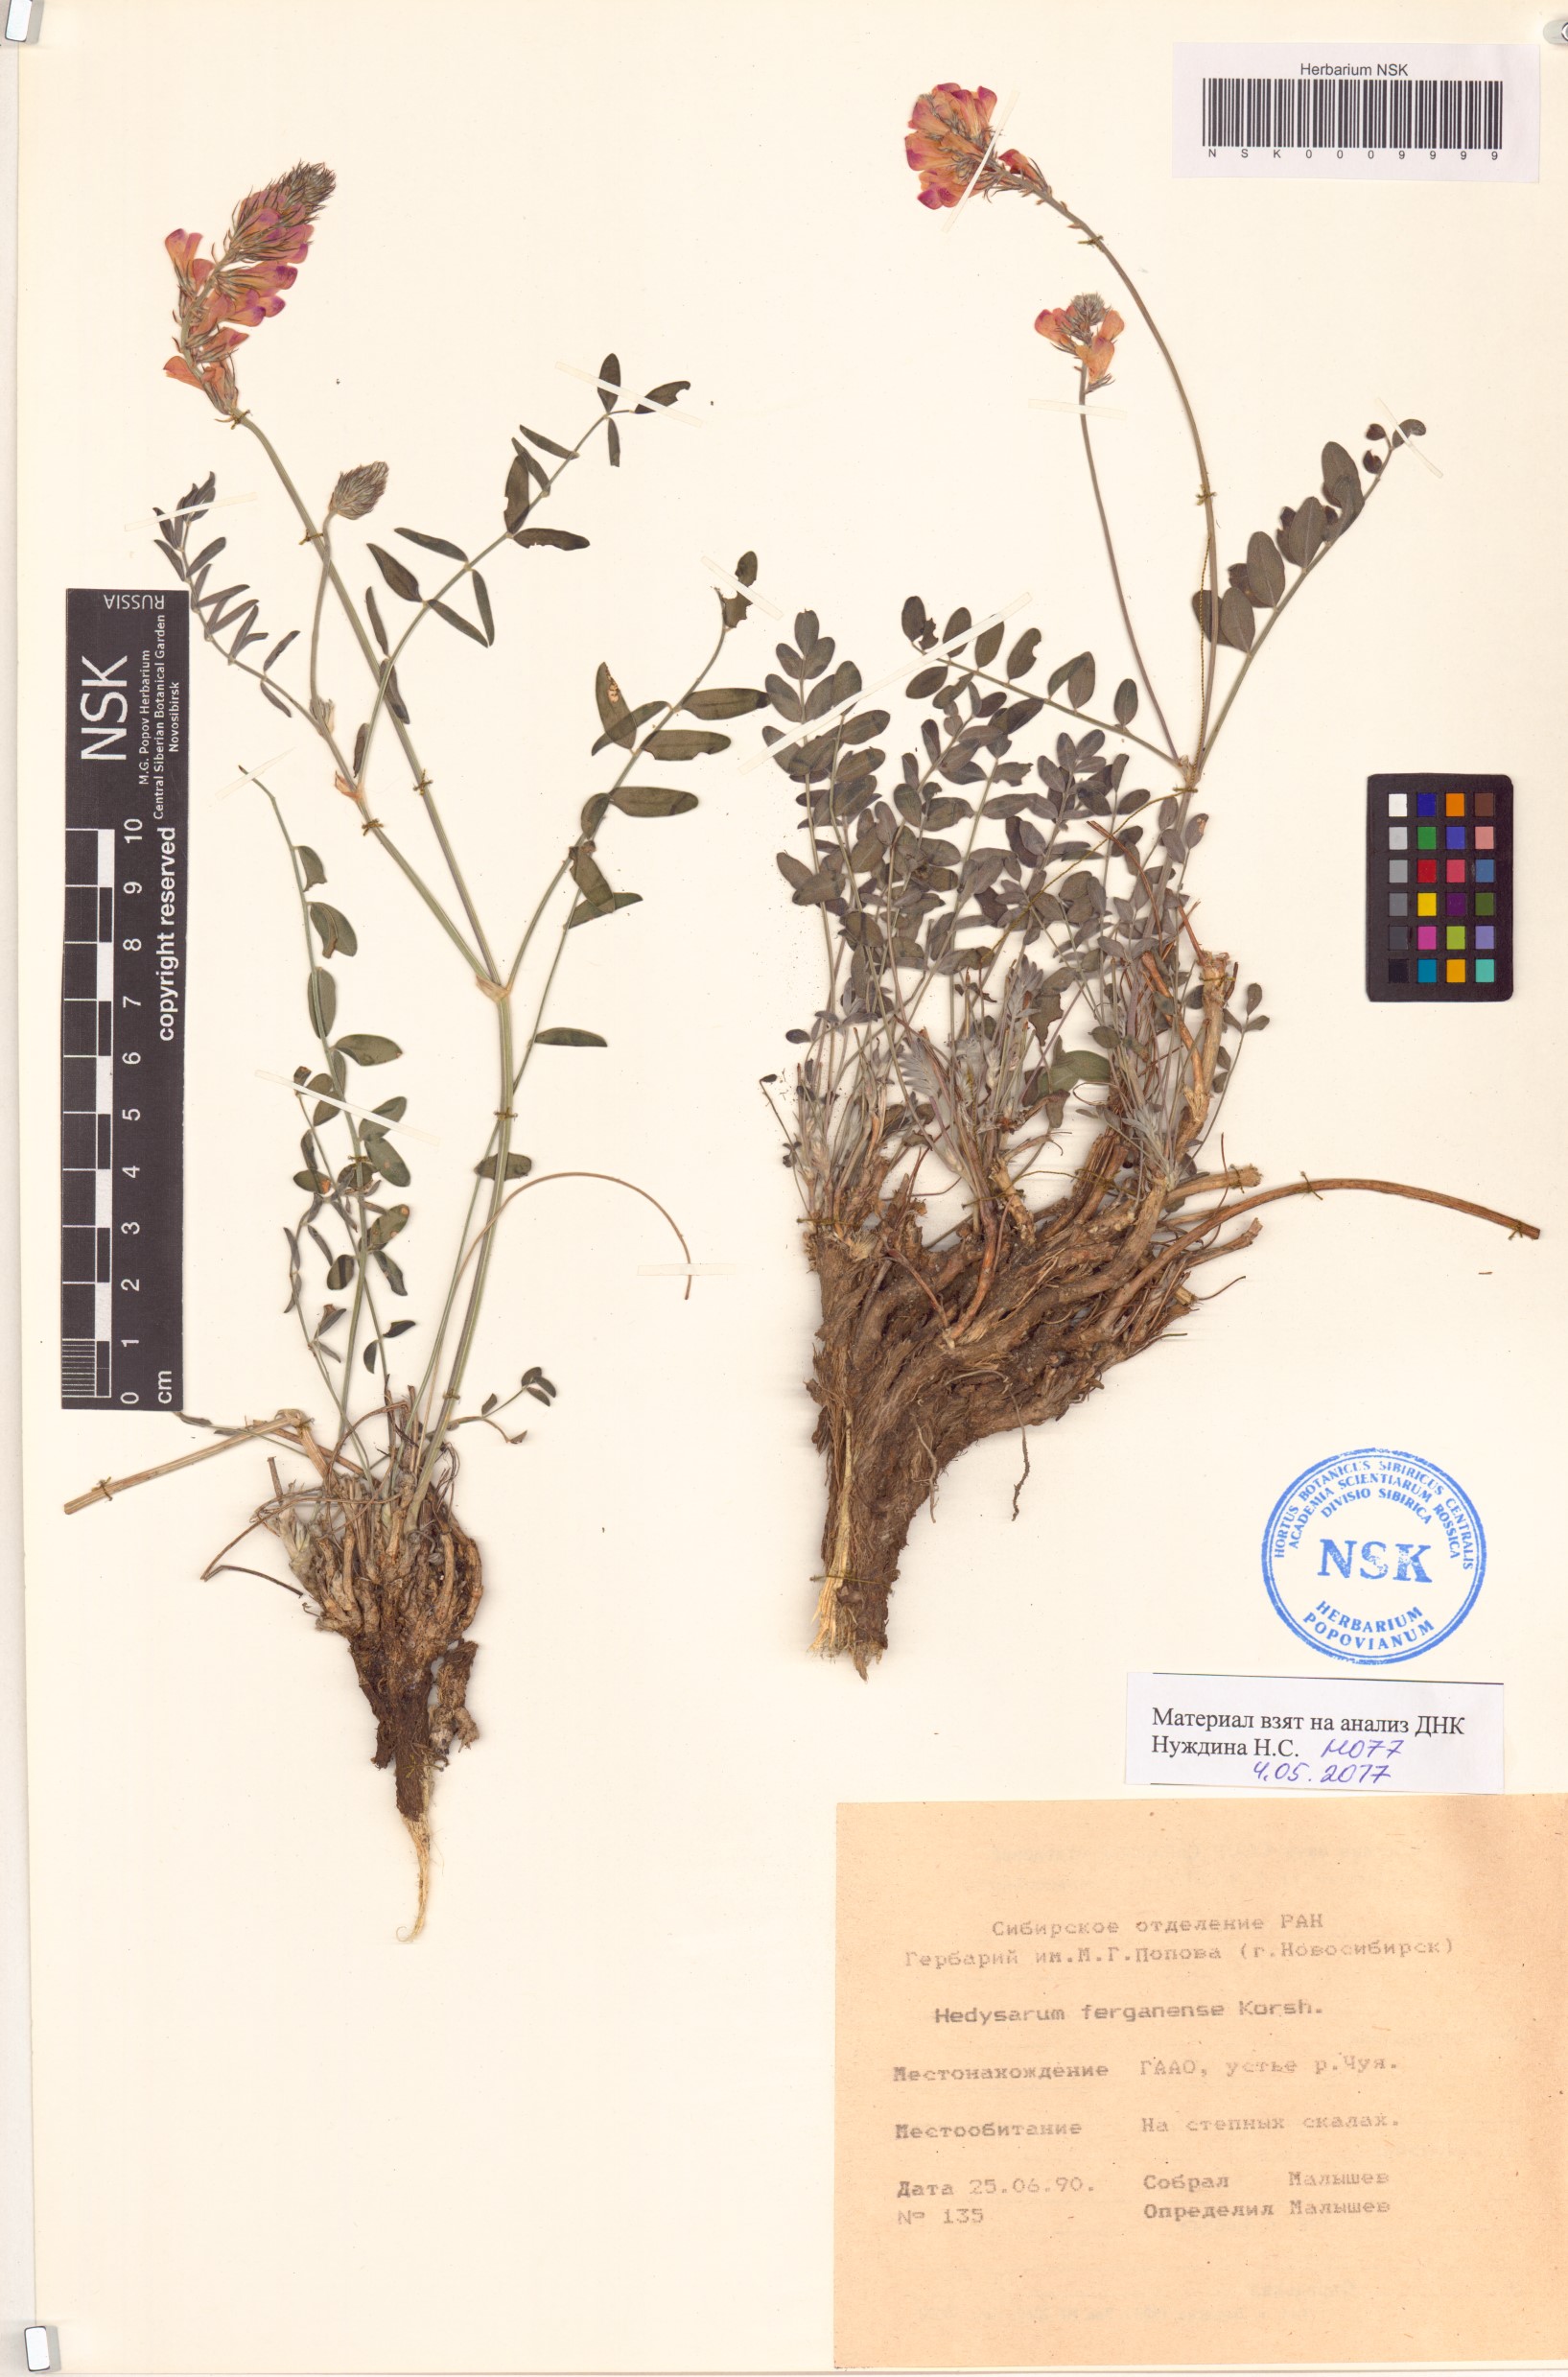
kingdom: Plantae
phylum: Tracheophyta
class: Magnoliopsida
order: Fabales
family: Fabaceae
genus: Hedysarum
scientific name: Hedysarum ferganense
